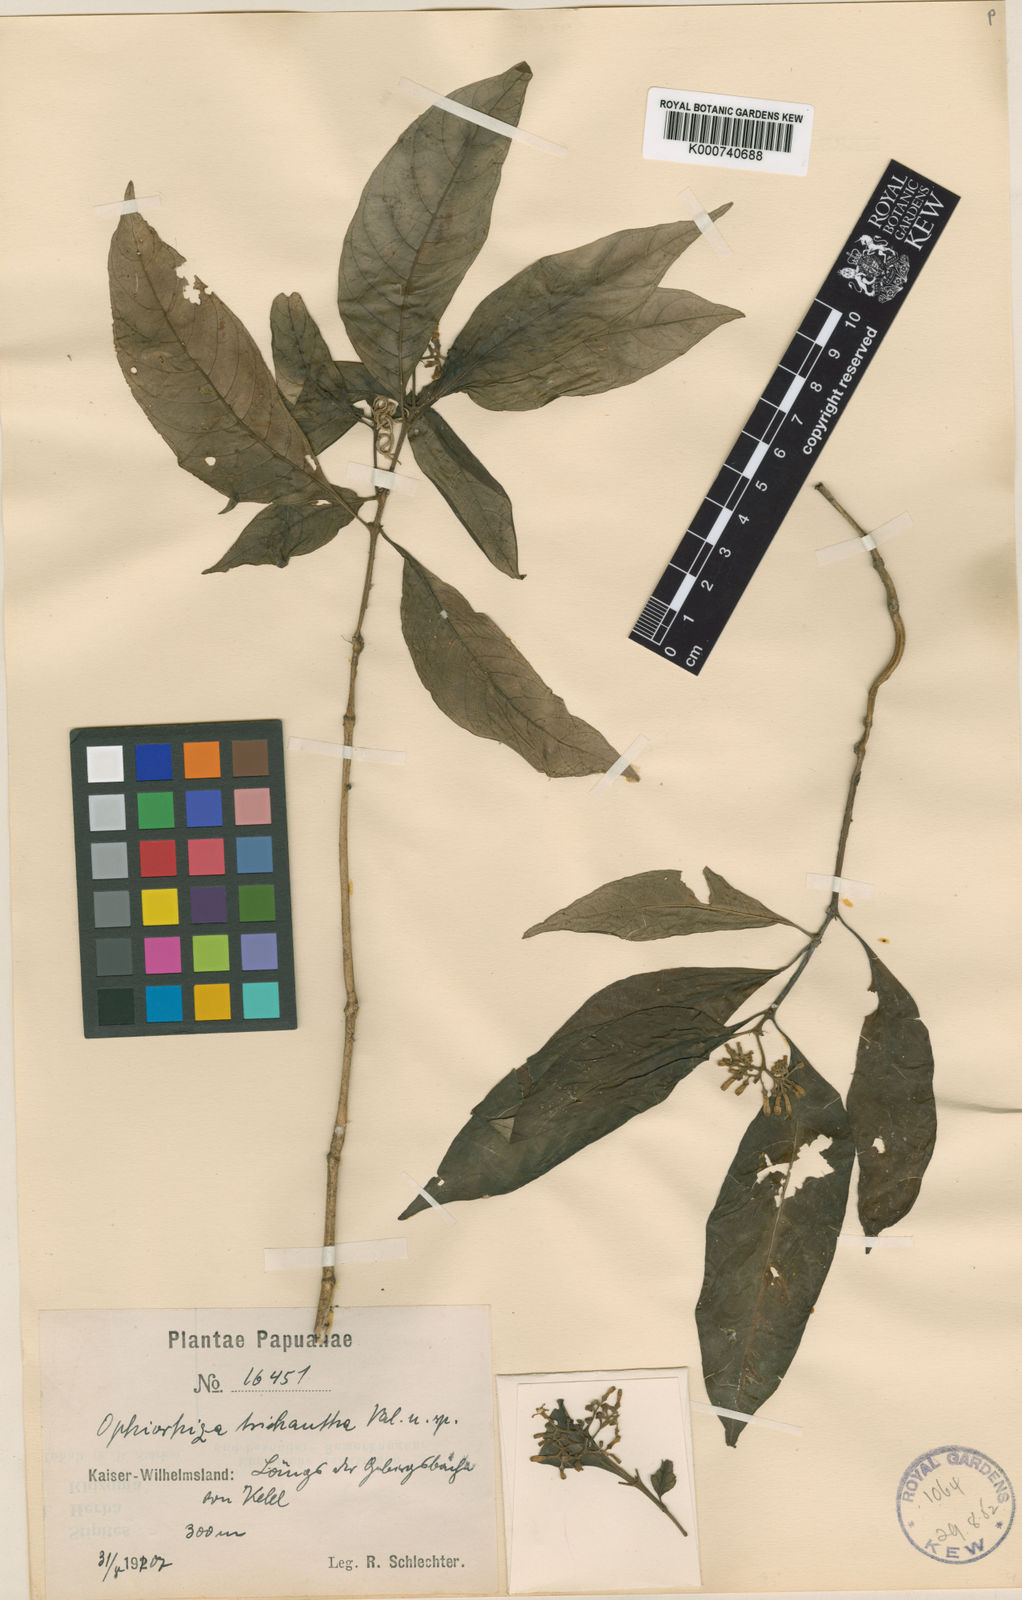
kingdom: Plantae
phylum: Tracheophyta
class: Magnoliopsida
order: Gentianales
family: Rubiaceae
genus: Ophiorrhiza
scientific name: Ophiorrhiza trichantha
